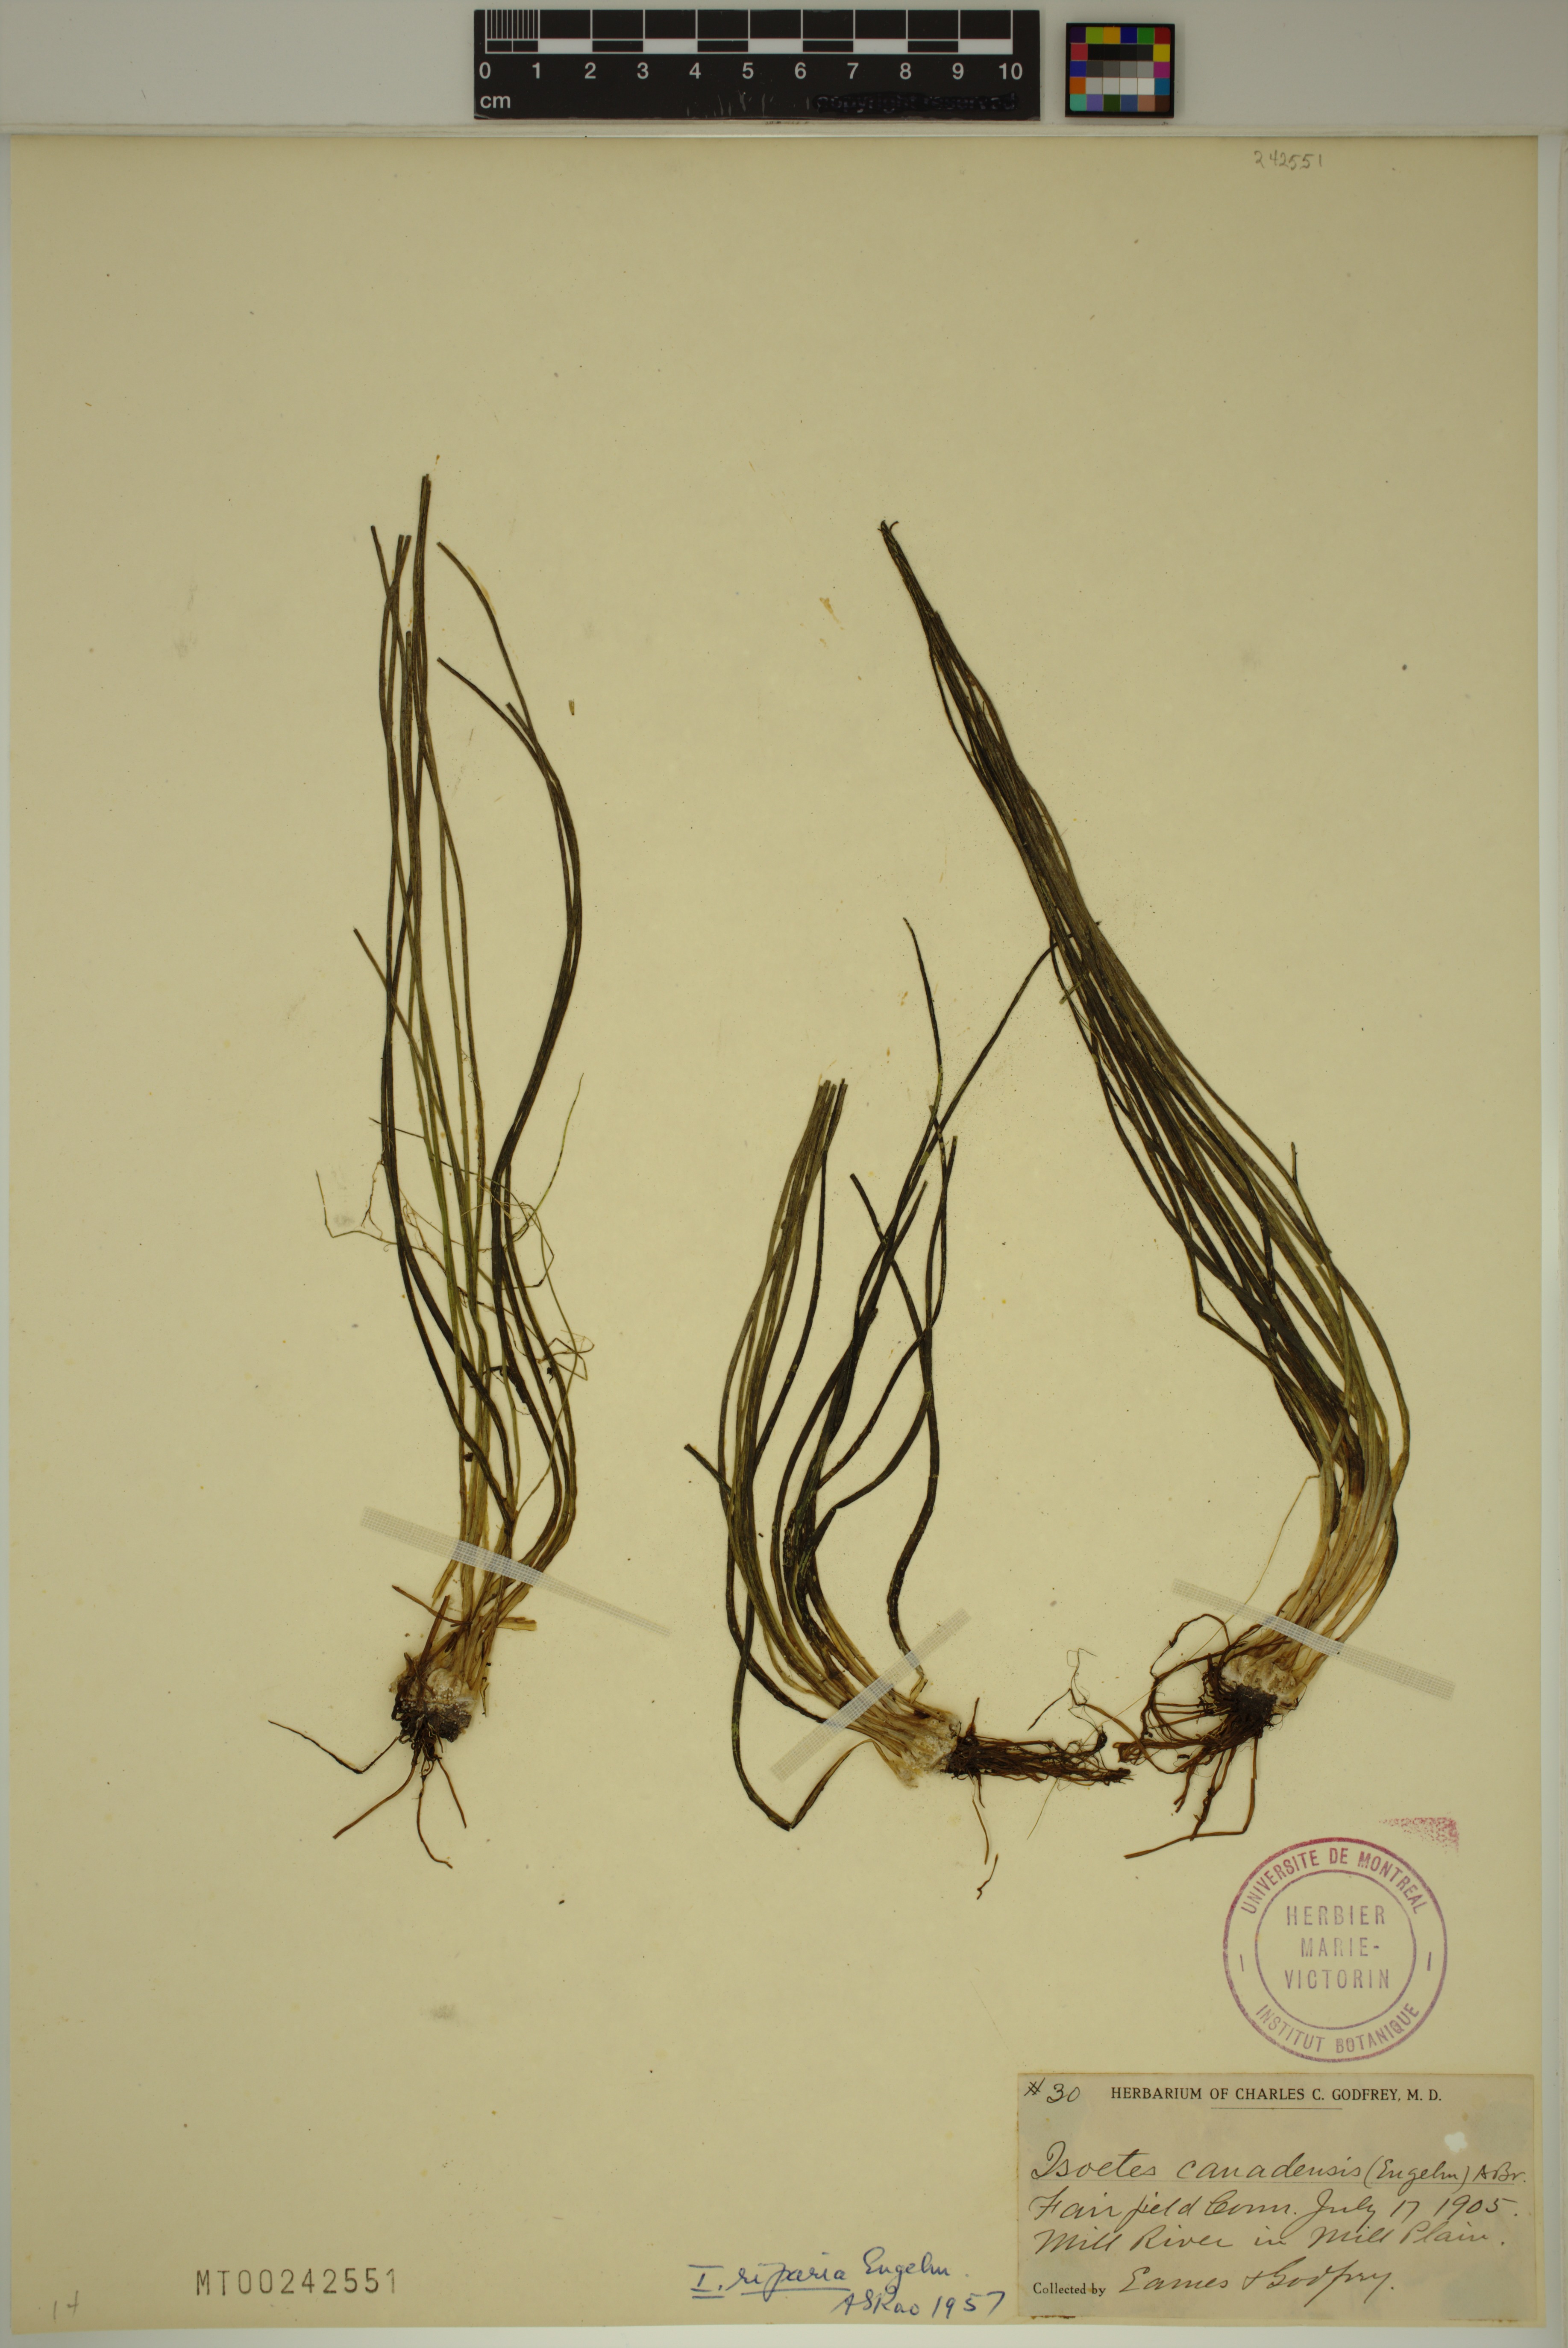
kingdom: Plantae
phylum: Tracheophyta
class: Lycopodiopsida
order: Isoetales
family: Isoetaceae
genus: Isoetes
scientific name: Isoetes septentrionalis
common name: Northern quillwort
